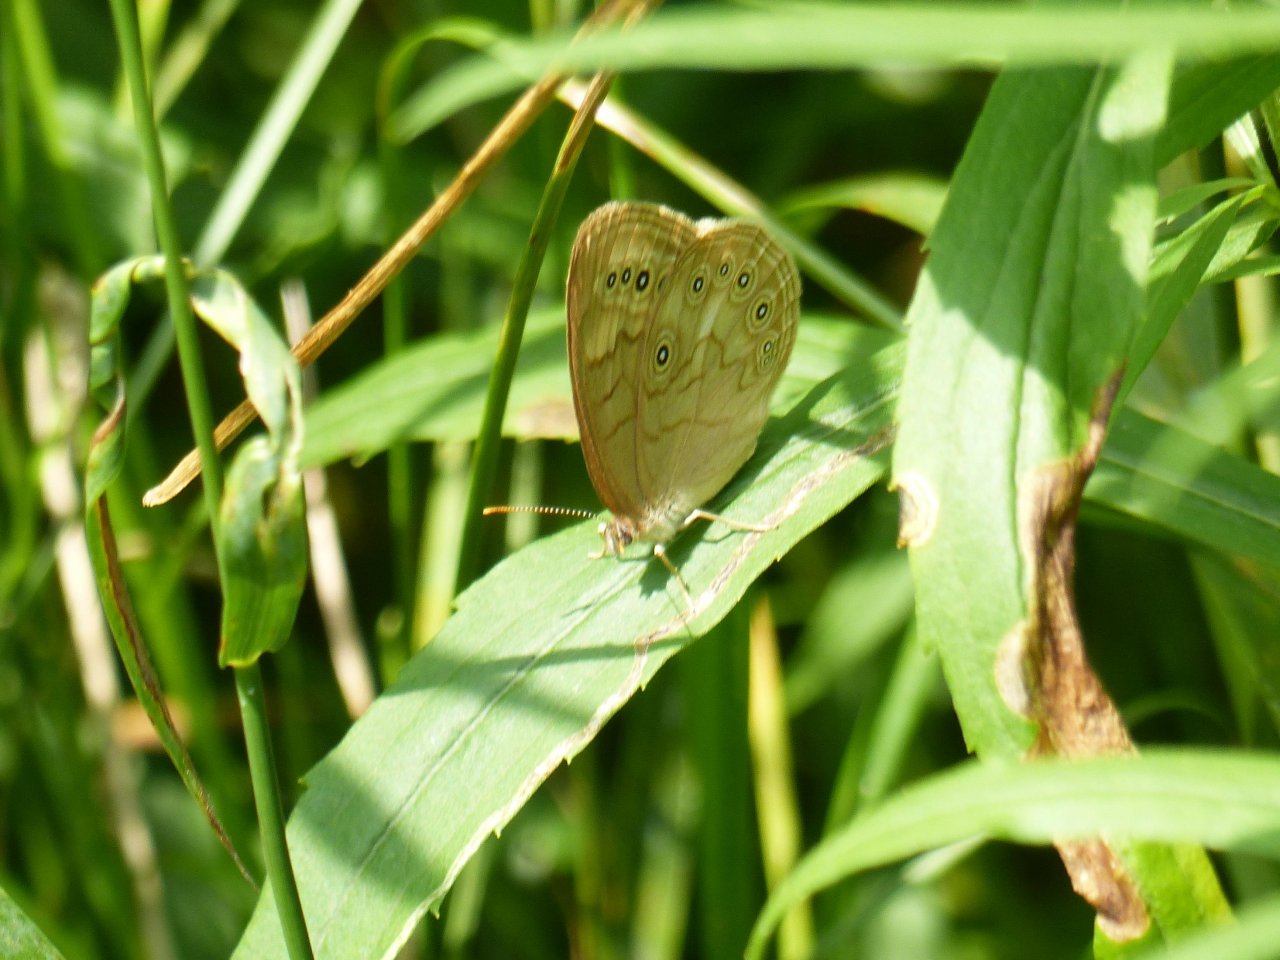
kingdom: Animalia
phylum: Arthropoda
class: Insecta
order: Lepidoptera
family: Nymphalidae
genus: Lethe
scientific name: Lethe eurydice
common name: Eyed Brown
